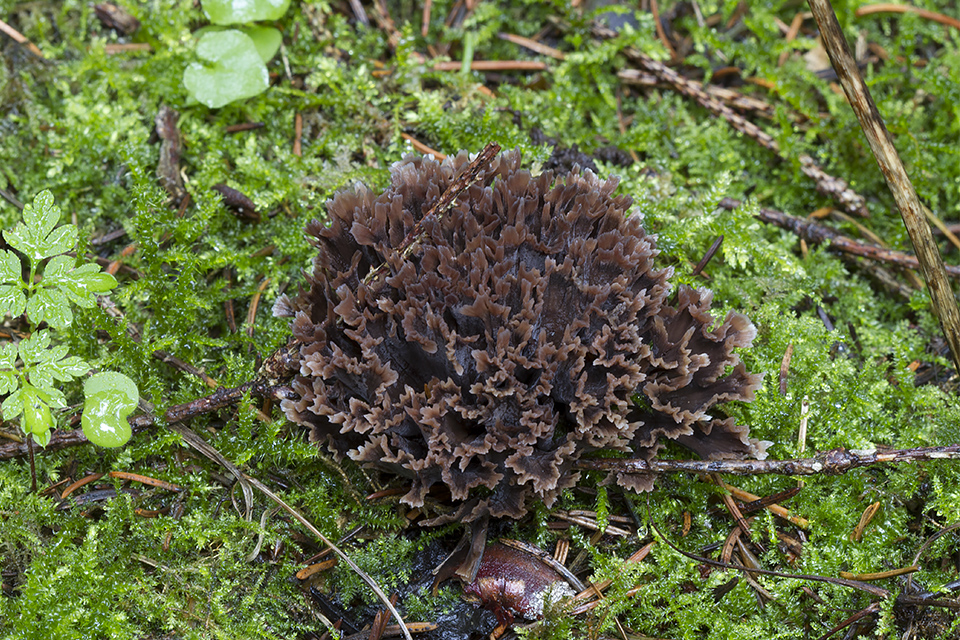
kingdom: Fungi
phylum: Basidiomycota
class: Agaricomycetes
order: Thelephorales
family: Thelephoraceae
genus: Thelephora
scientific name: Thelephora palmata
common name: grenet frynsesvamp
